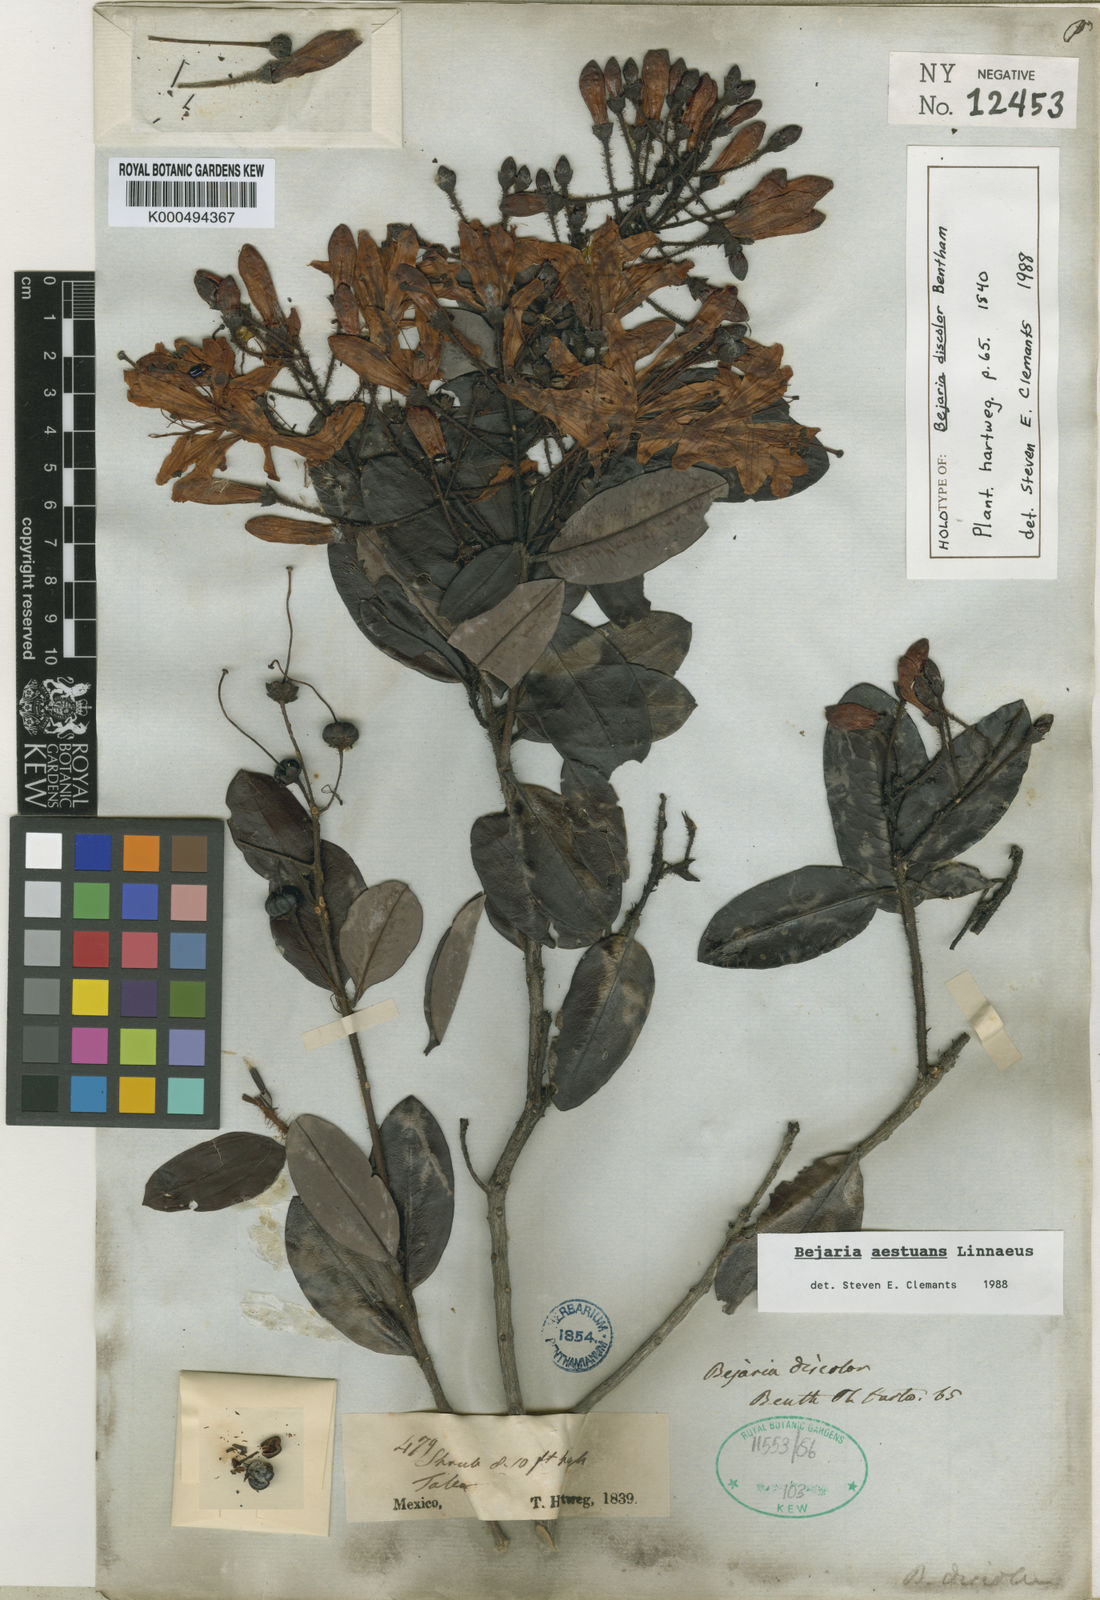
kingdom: Plantae
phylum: Tracheophyta
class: Magnoliopsida
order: Ericales
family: Ericaceae
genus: Bejaria
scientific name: Bejaria
